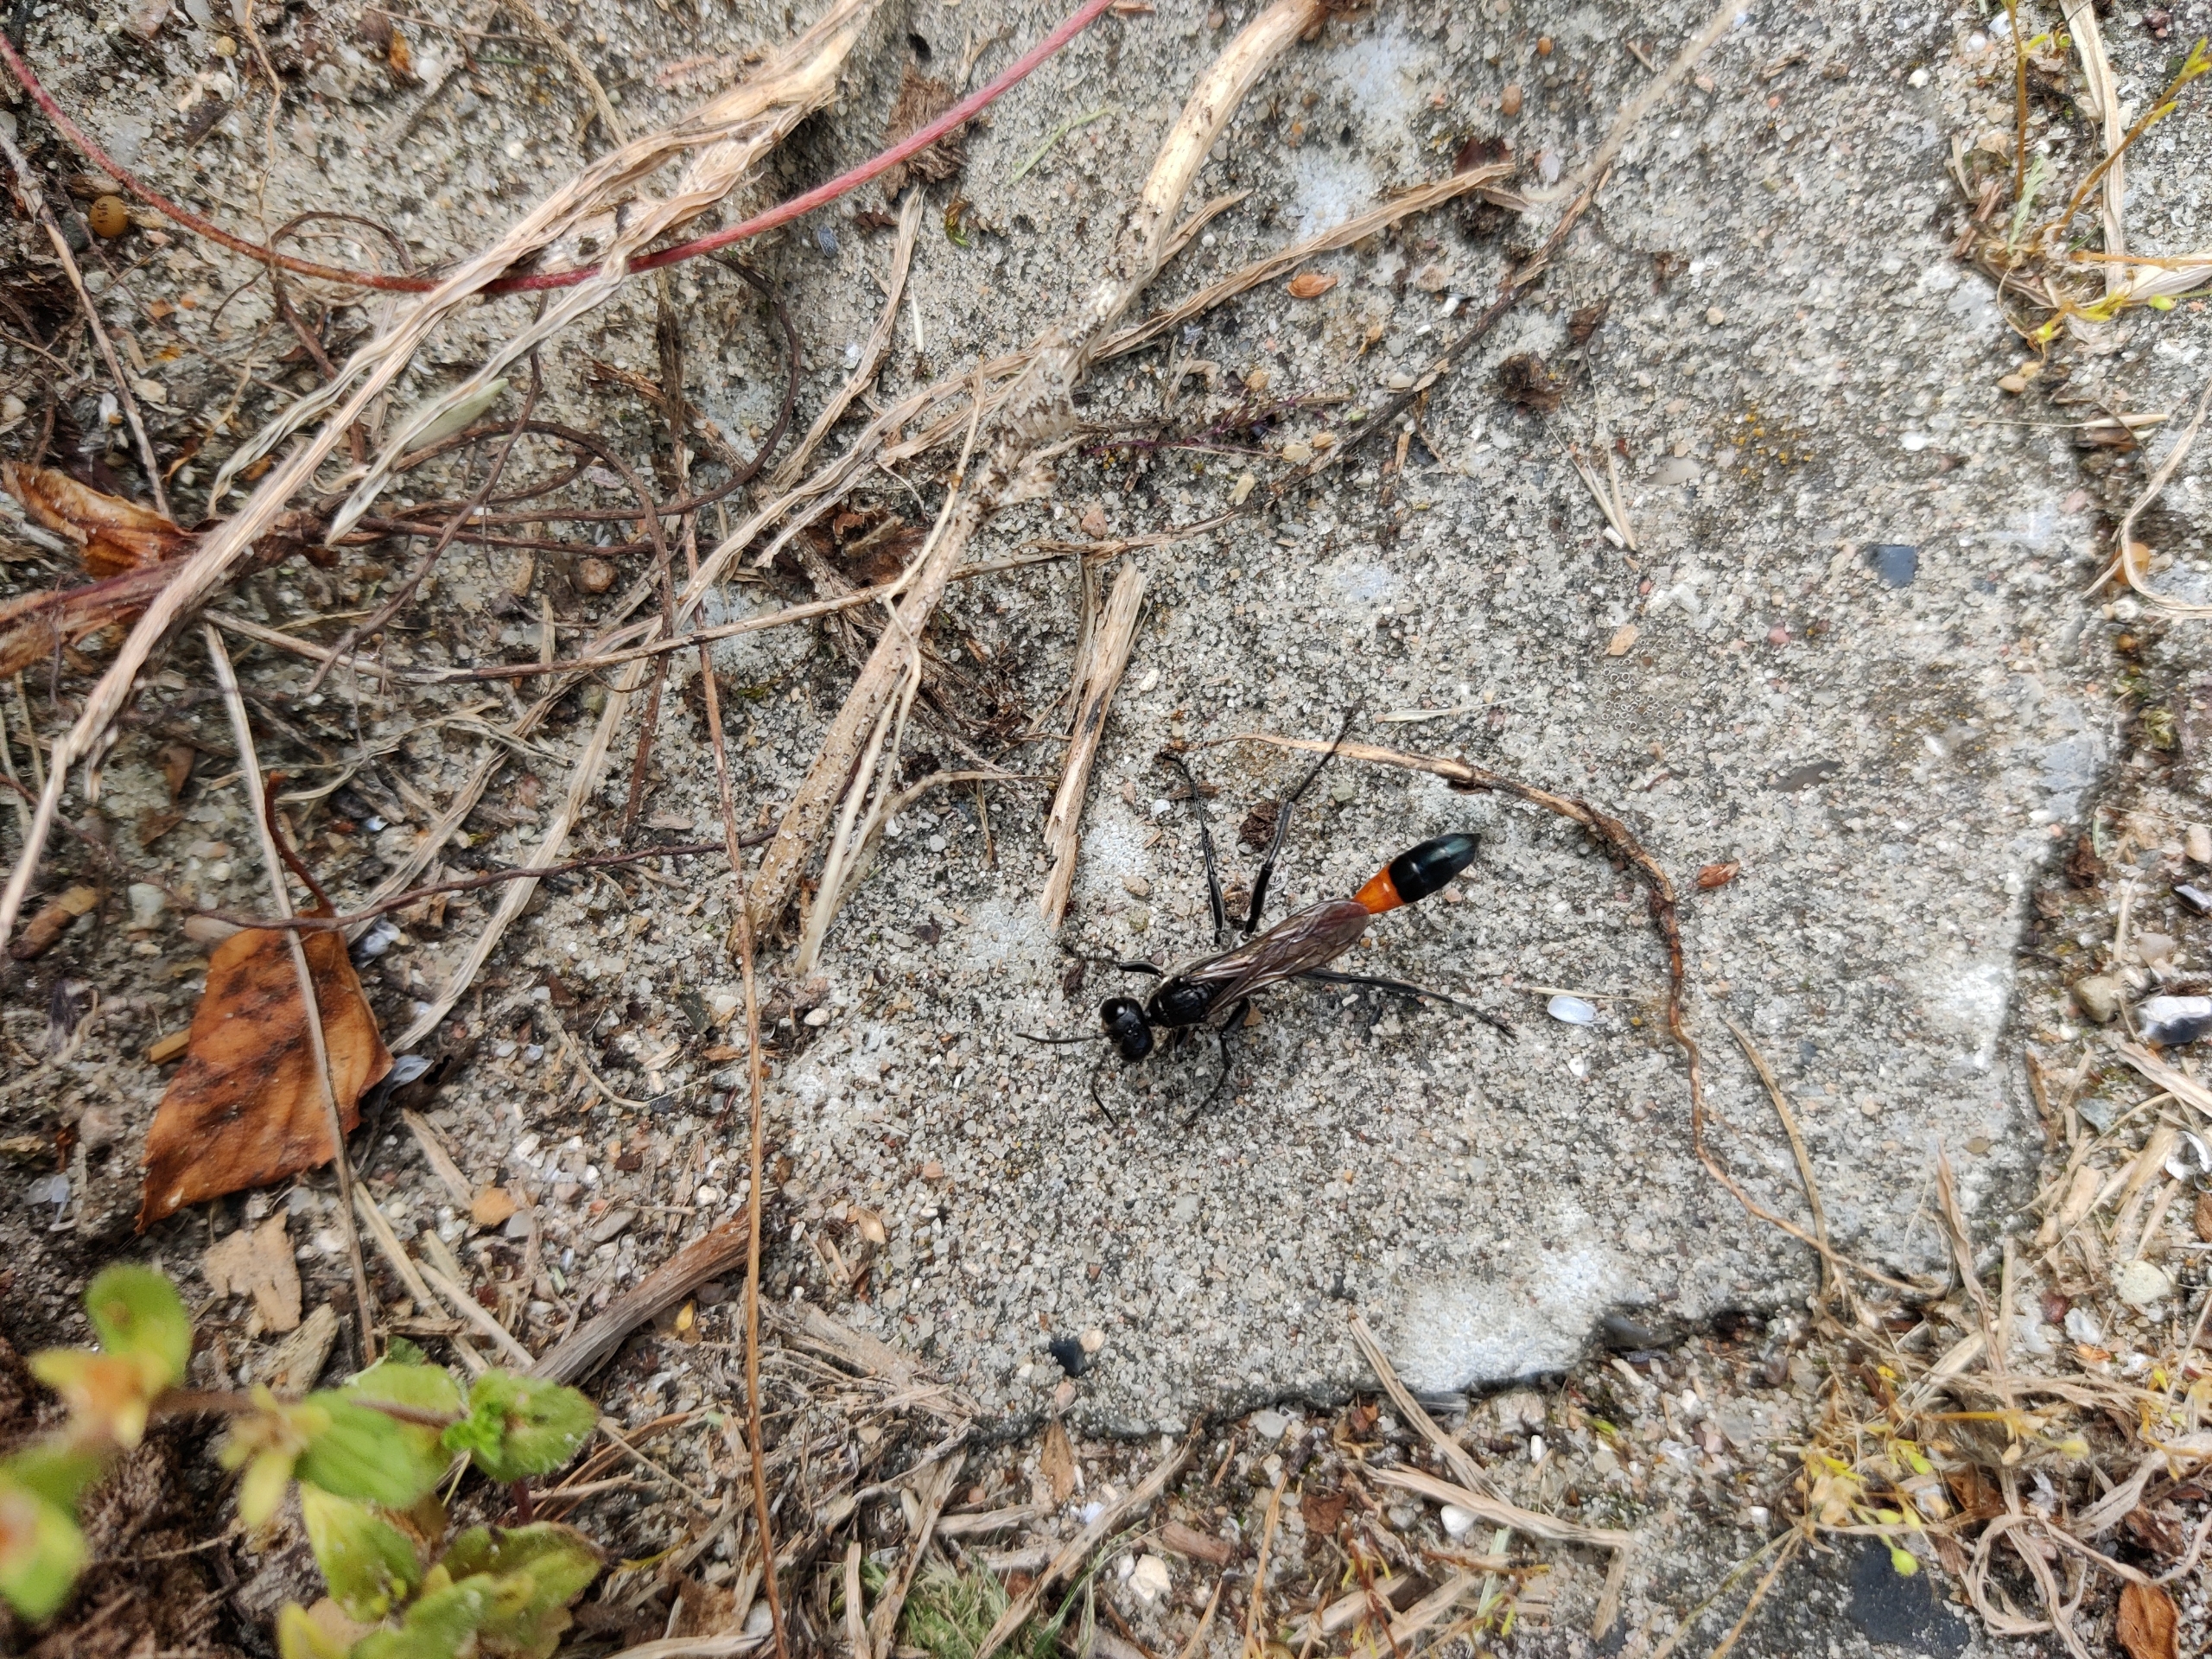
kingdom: Animalia
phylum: Arthropoda
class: Insecta
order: Hymenoptera
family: Sphecidae
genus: Ammophila
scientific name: Ammophila sabulosa
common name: Almindelig sandhveps
